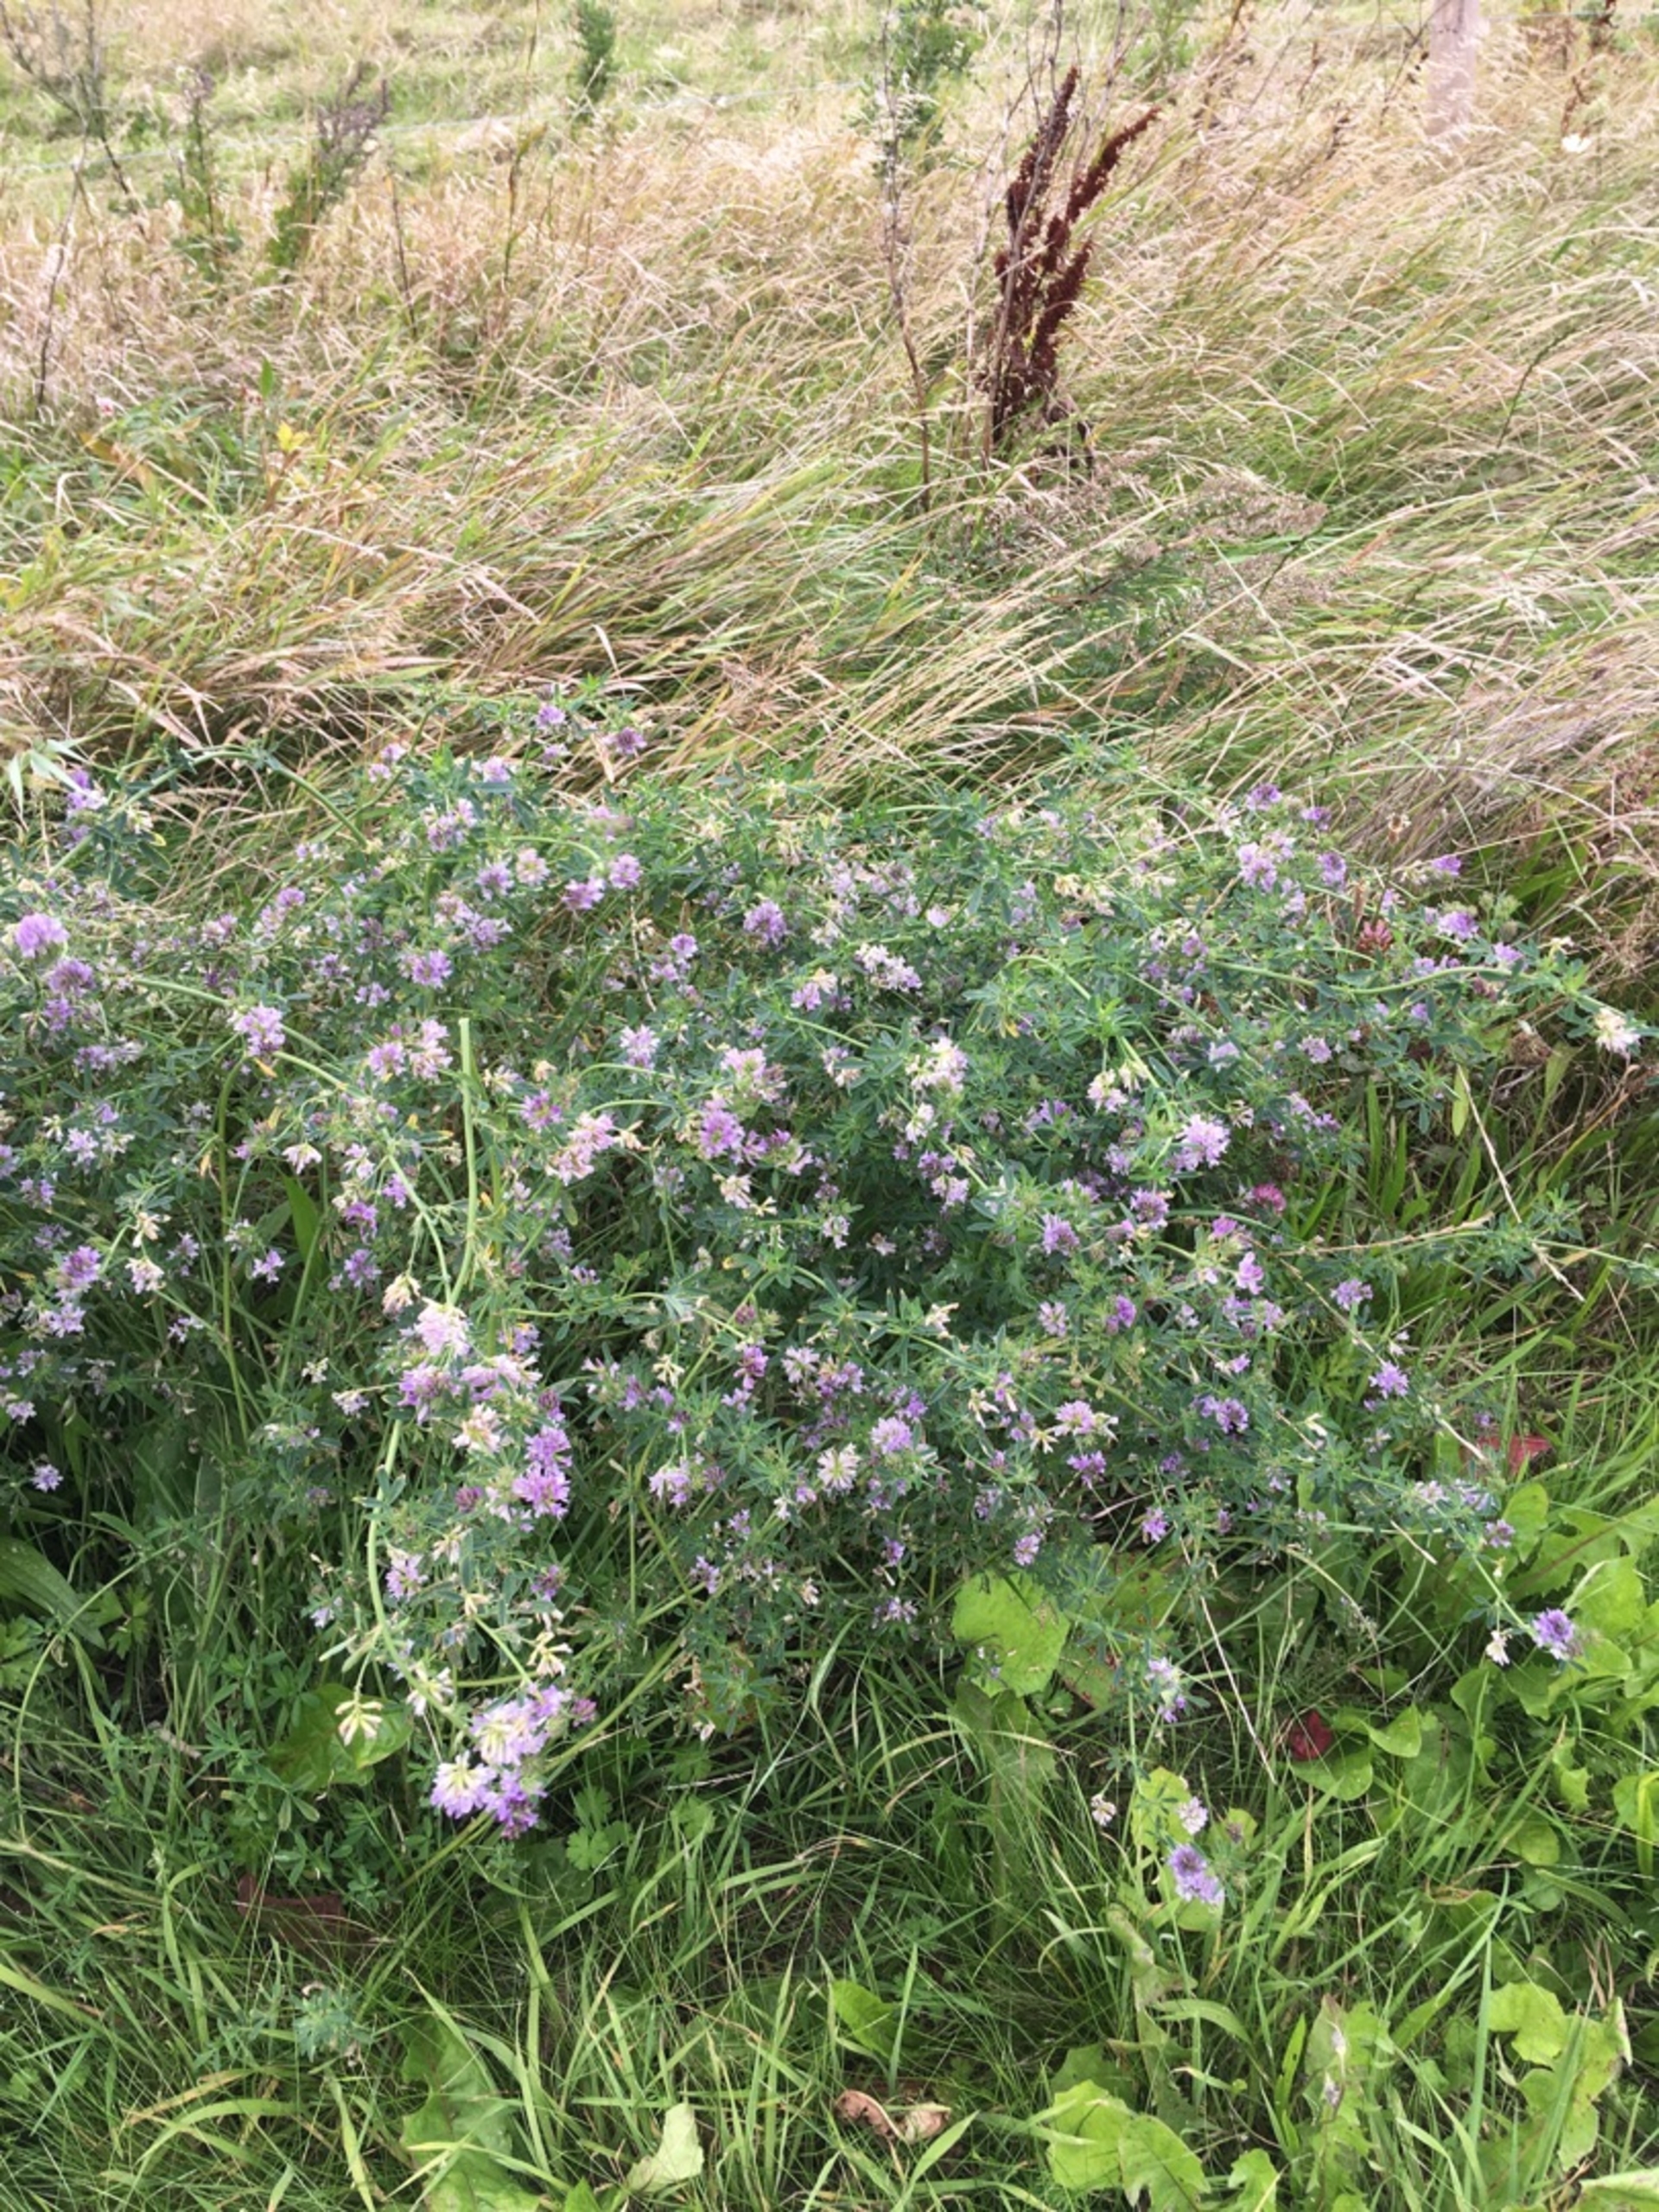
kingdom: Plantae
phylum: Tracheophyta
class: Magnoliopsida
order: Fabales
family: Fabaceae
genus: Medicago
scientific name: Medicago sativa
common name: Foderlucerne
